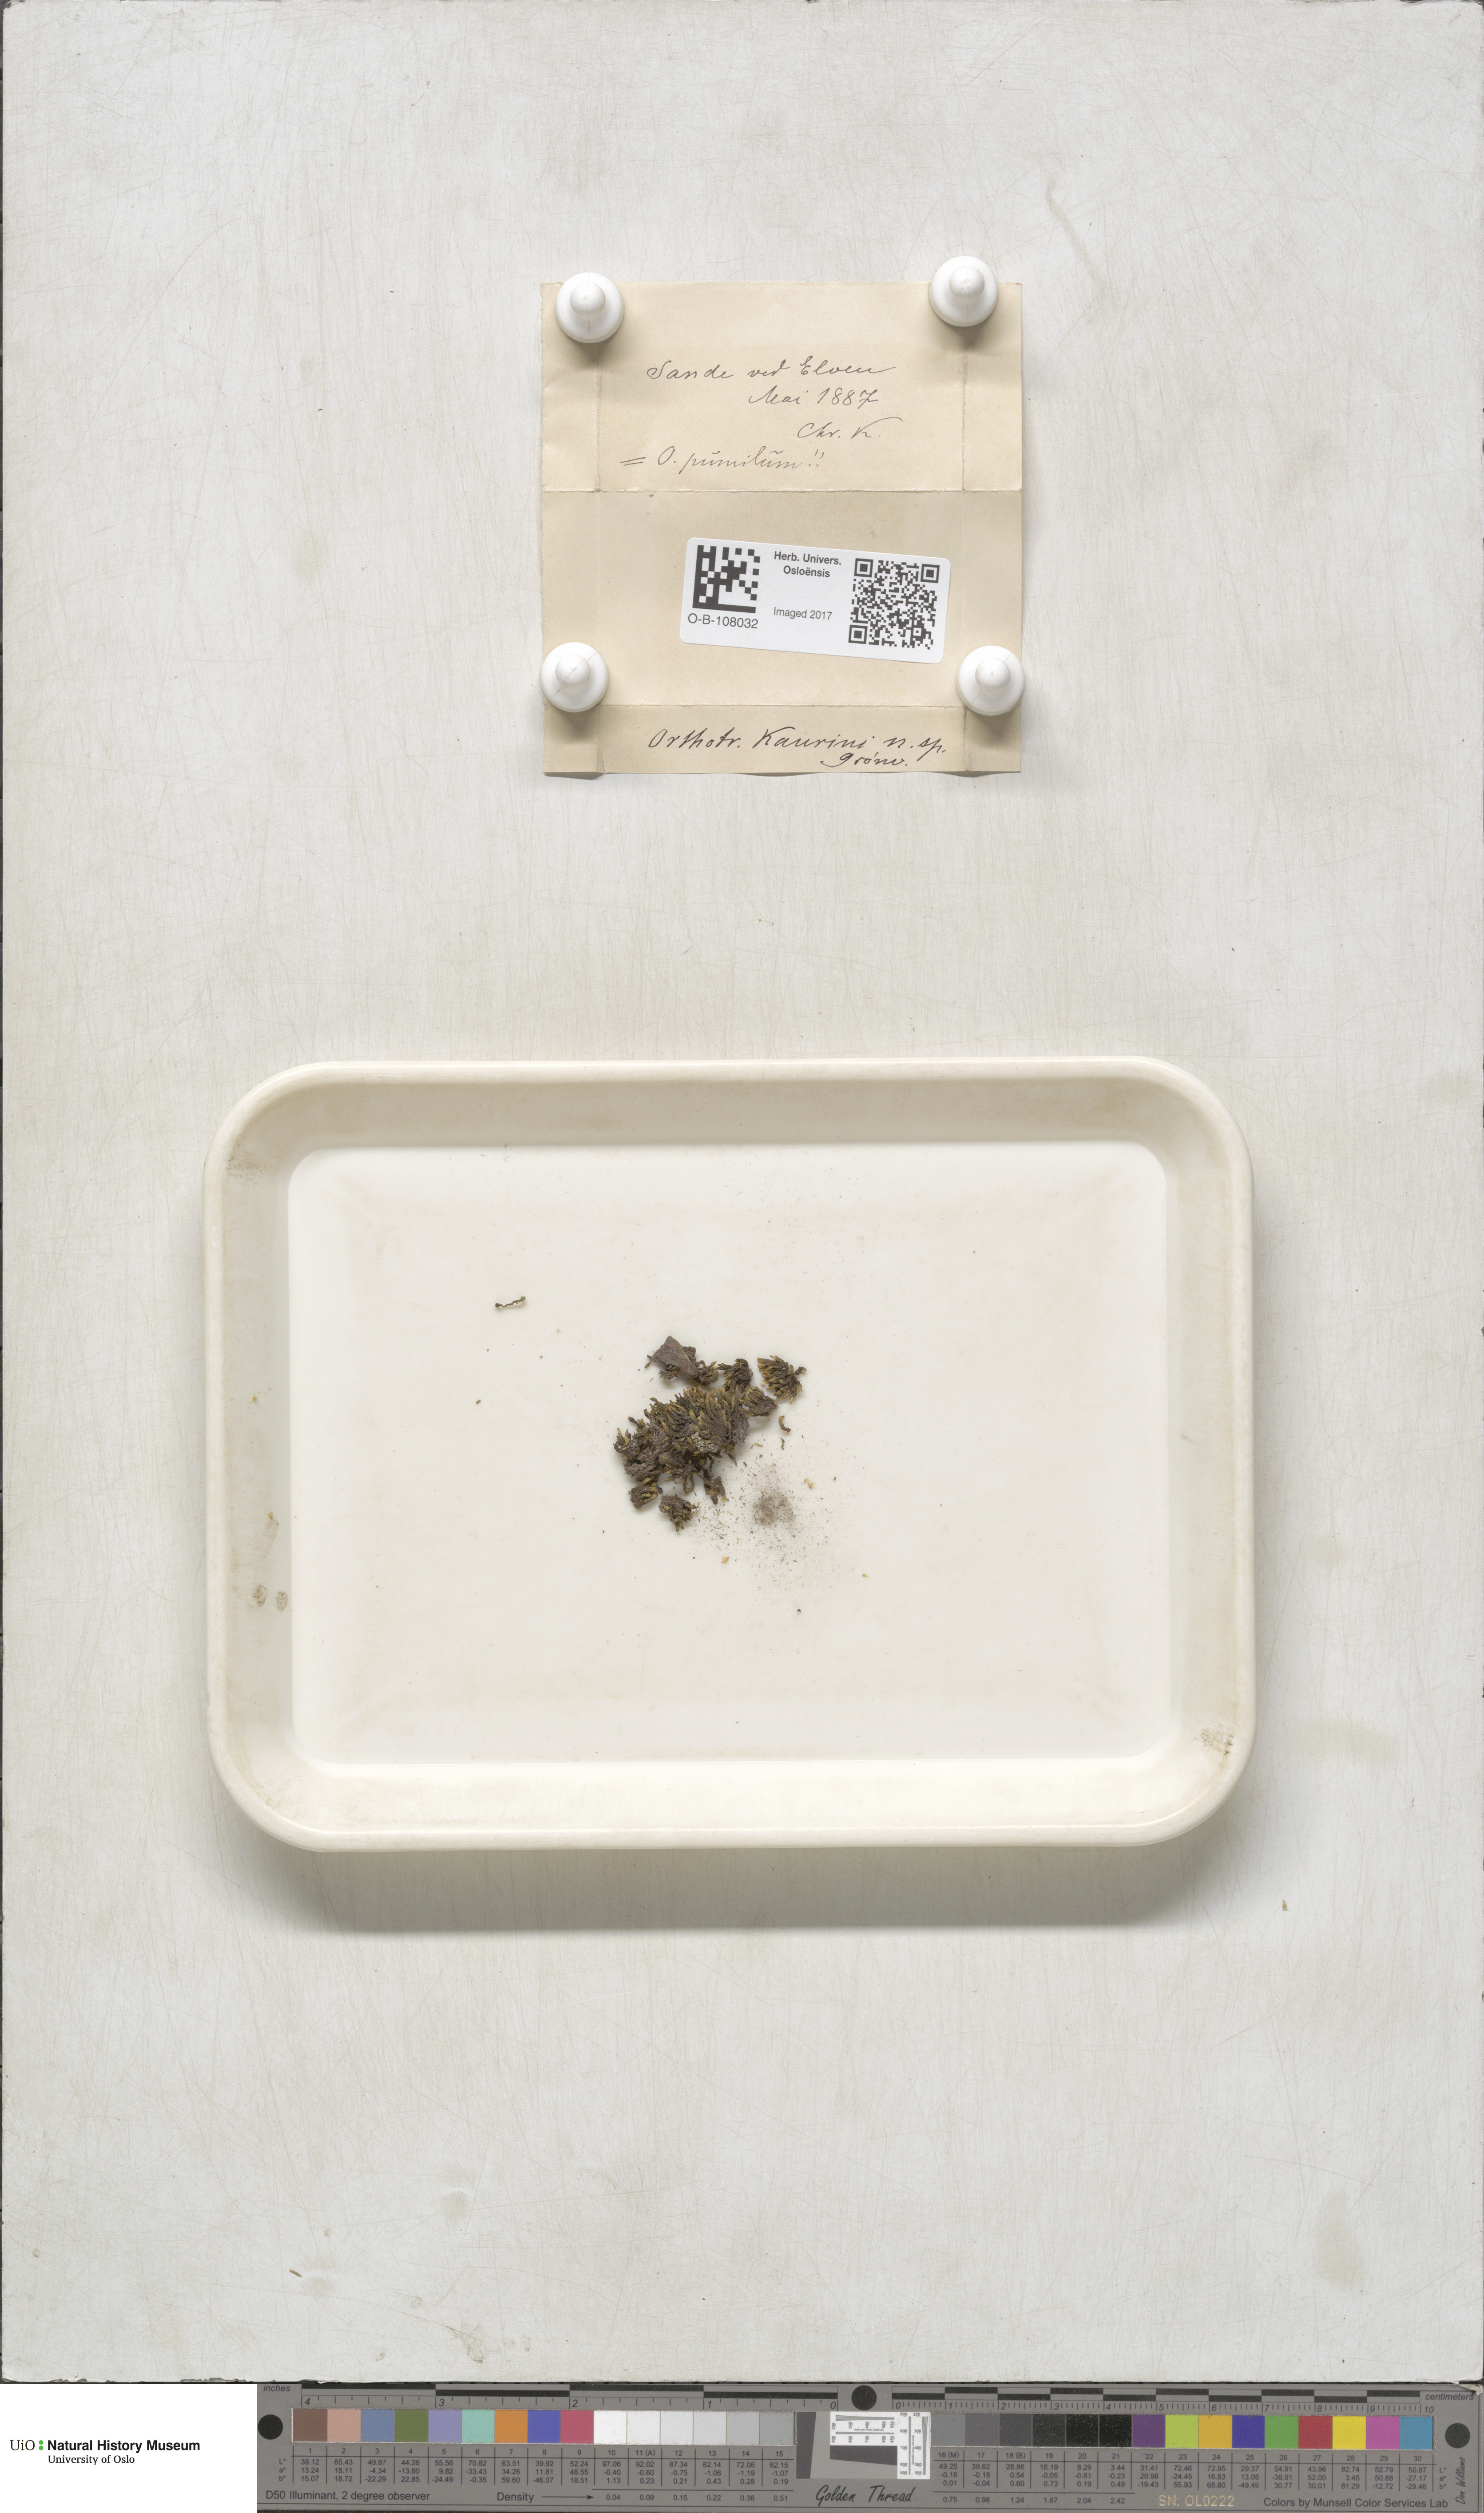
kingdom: Plantae
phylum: Bryophyta
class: Bryopsida
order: Orthotrichales
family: Orthotrichaceae
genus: Orthotrichum
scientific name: Orthotrichum pumilum
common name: Dwarf bristle moss
